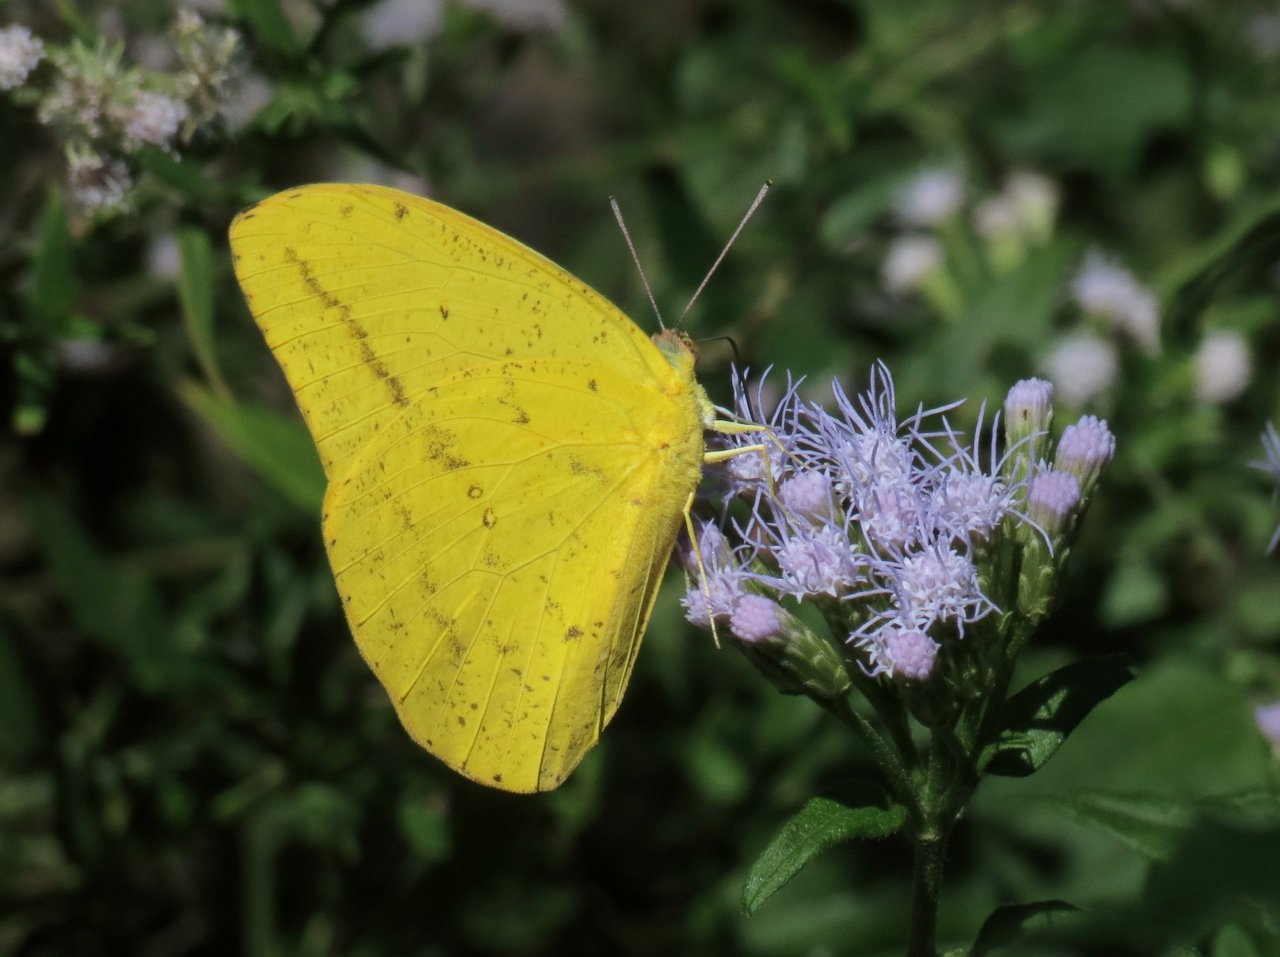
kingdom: Animalia
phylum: Arthropoda
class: Insecta
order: Lepidoptera
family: Pieridae
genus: Phoebis
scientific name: Phoebis agarithe
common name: Large Orange Sulphur
